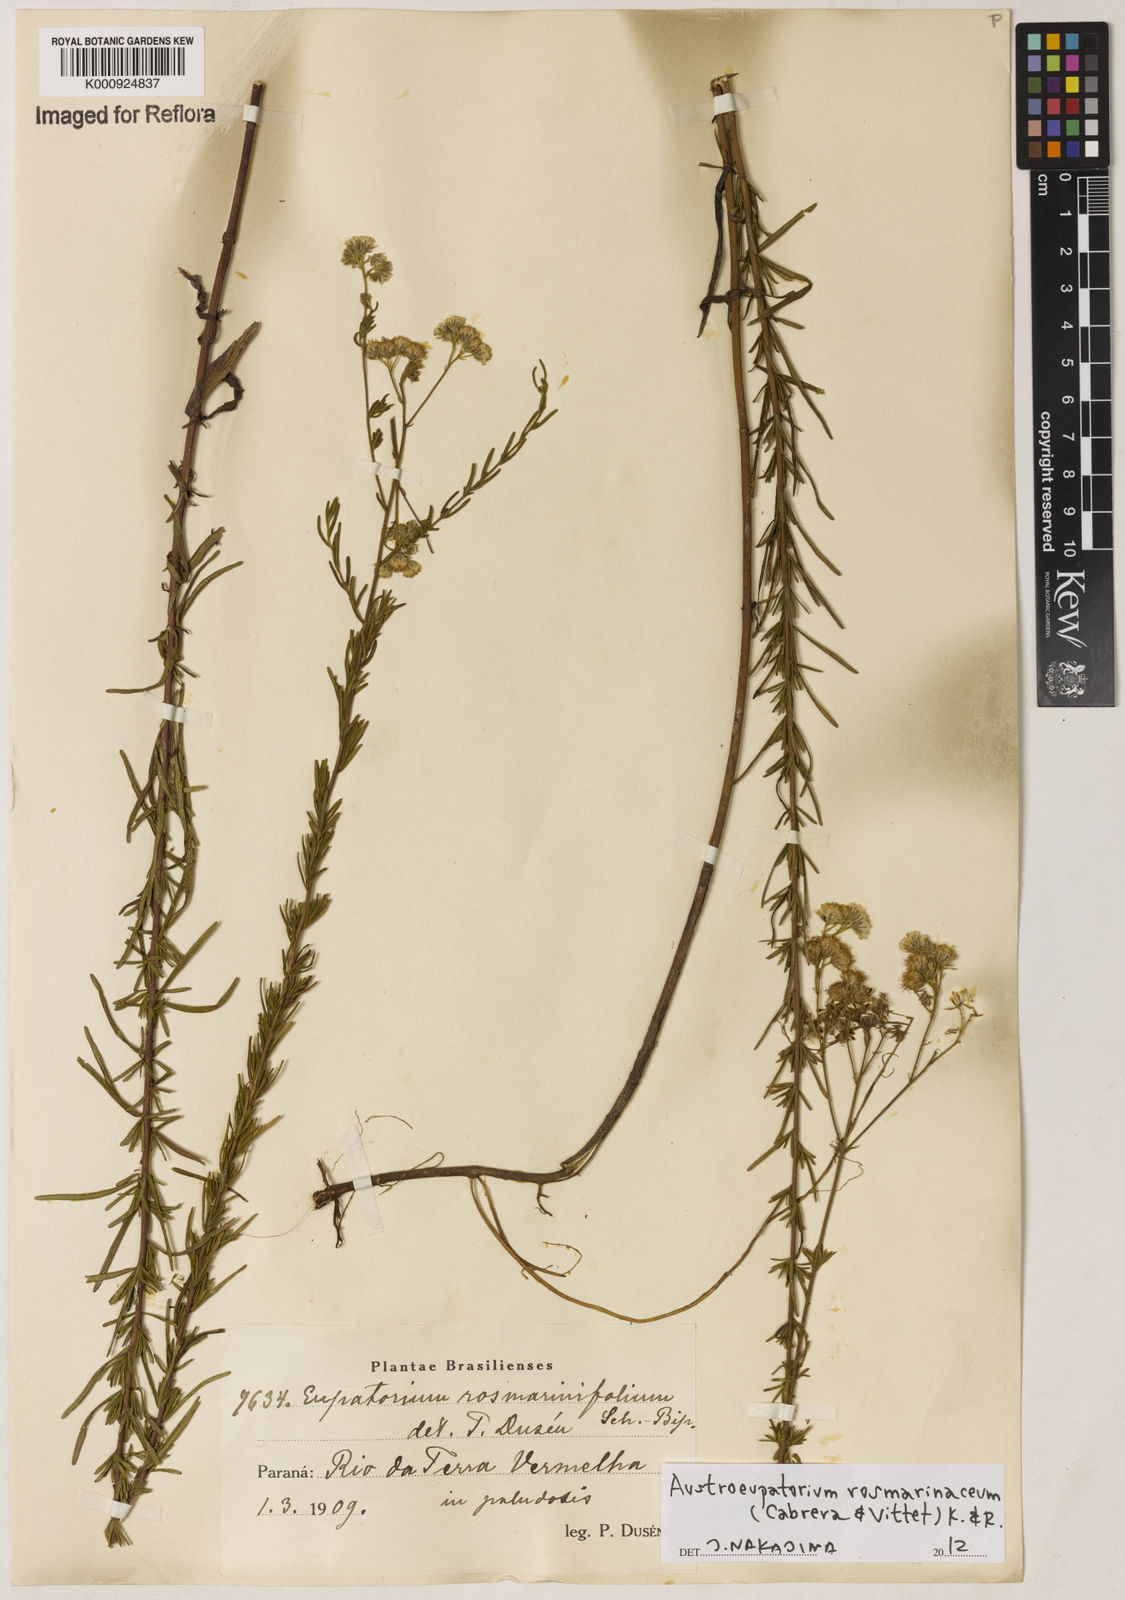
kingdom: Plantae
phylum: Tracheophyta
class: Magnoliopsida
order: Asterales
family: Asteraceae
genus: Austroeupatorium
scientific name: Austroeupatorium rosmarinaceum
